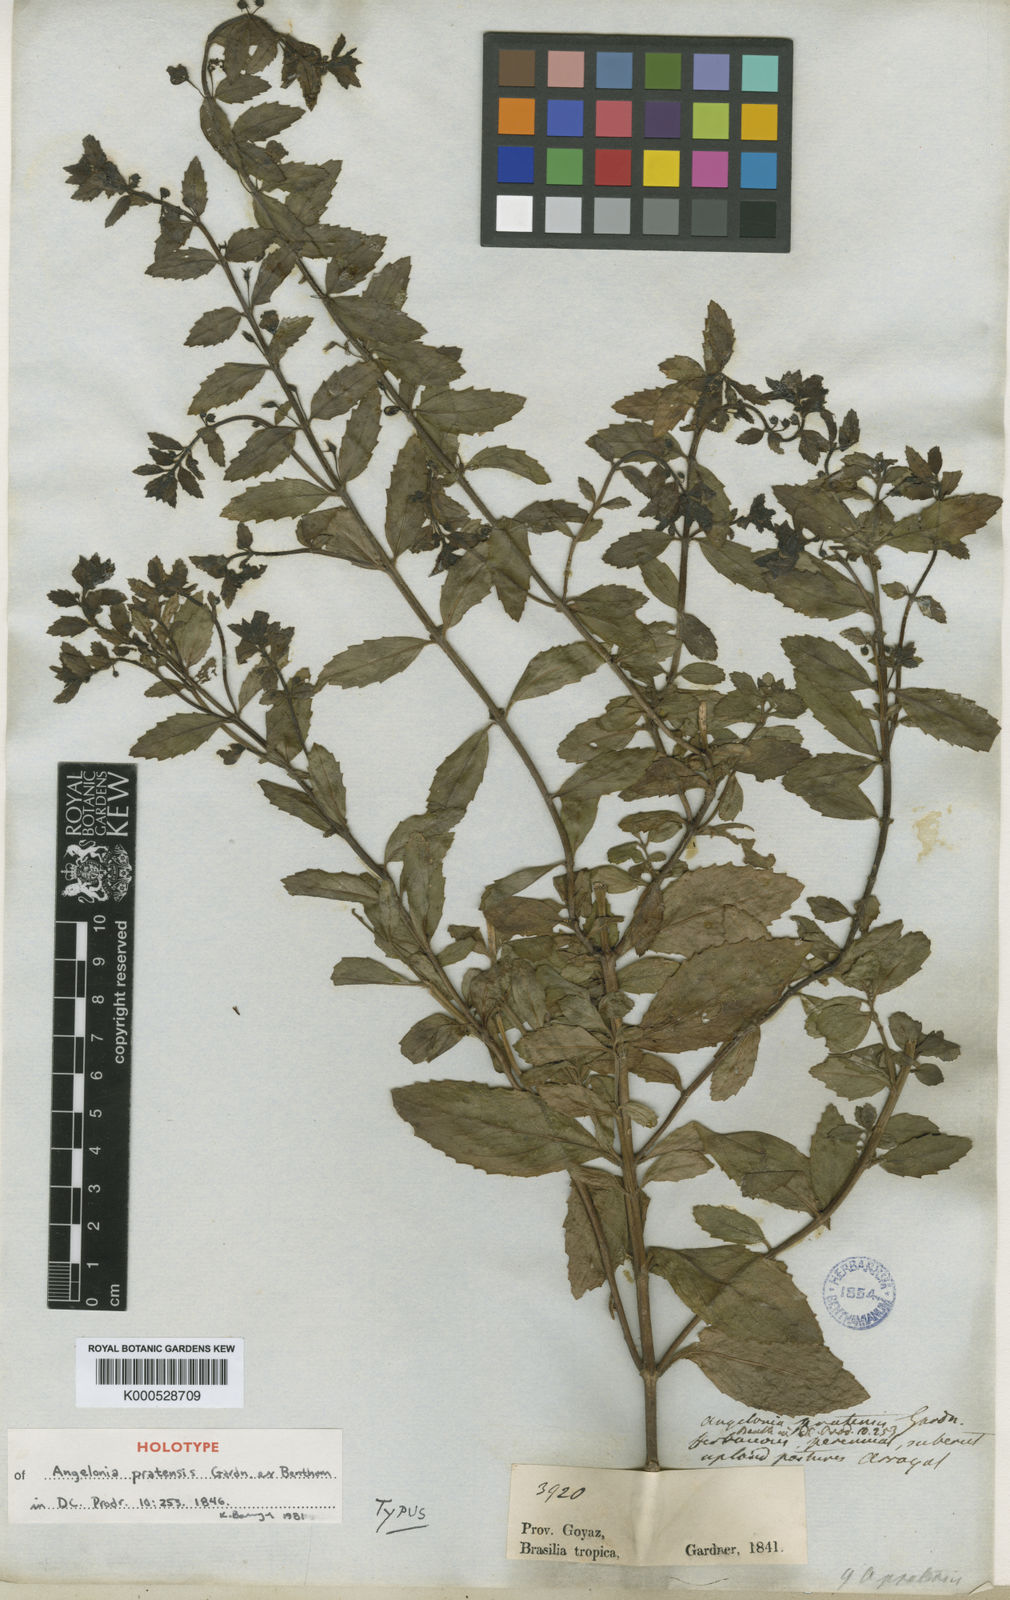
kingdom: Plantae
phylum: Tracheophyta
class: Magnoliopsida
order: Lamiales
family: Plantaginaceae
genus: Angelonia
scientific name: Angelonia
